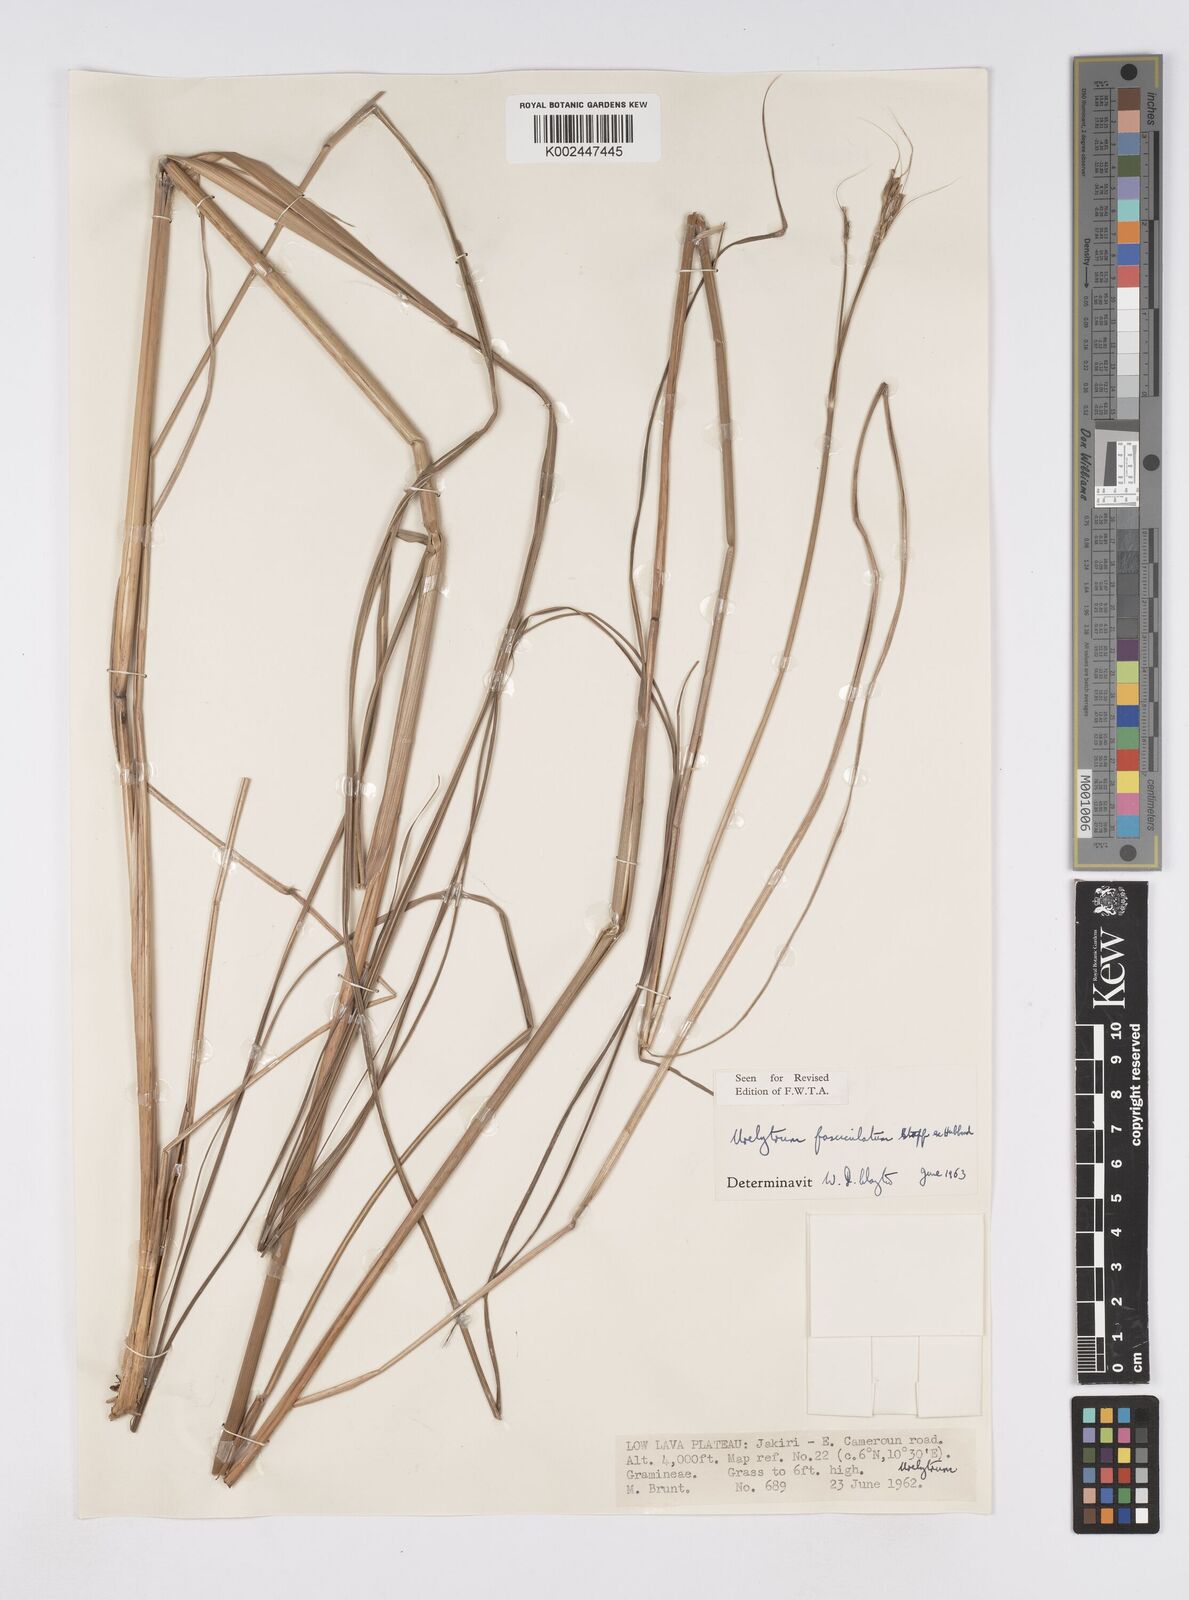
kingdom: Plantae
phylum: Tracheophyta
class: Liliopsida
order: Poales
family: Poaceae
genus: Urelytrum
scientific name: Urelytrum digitatum
